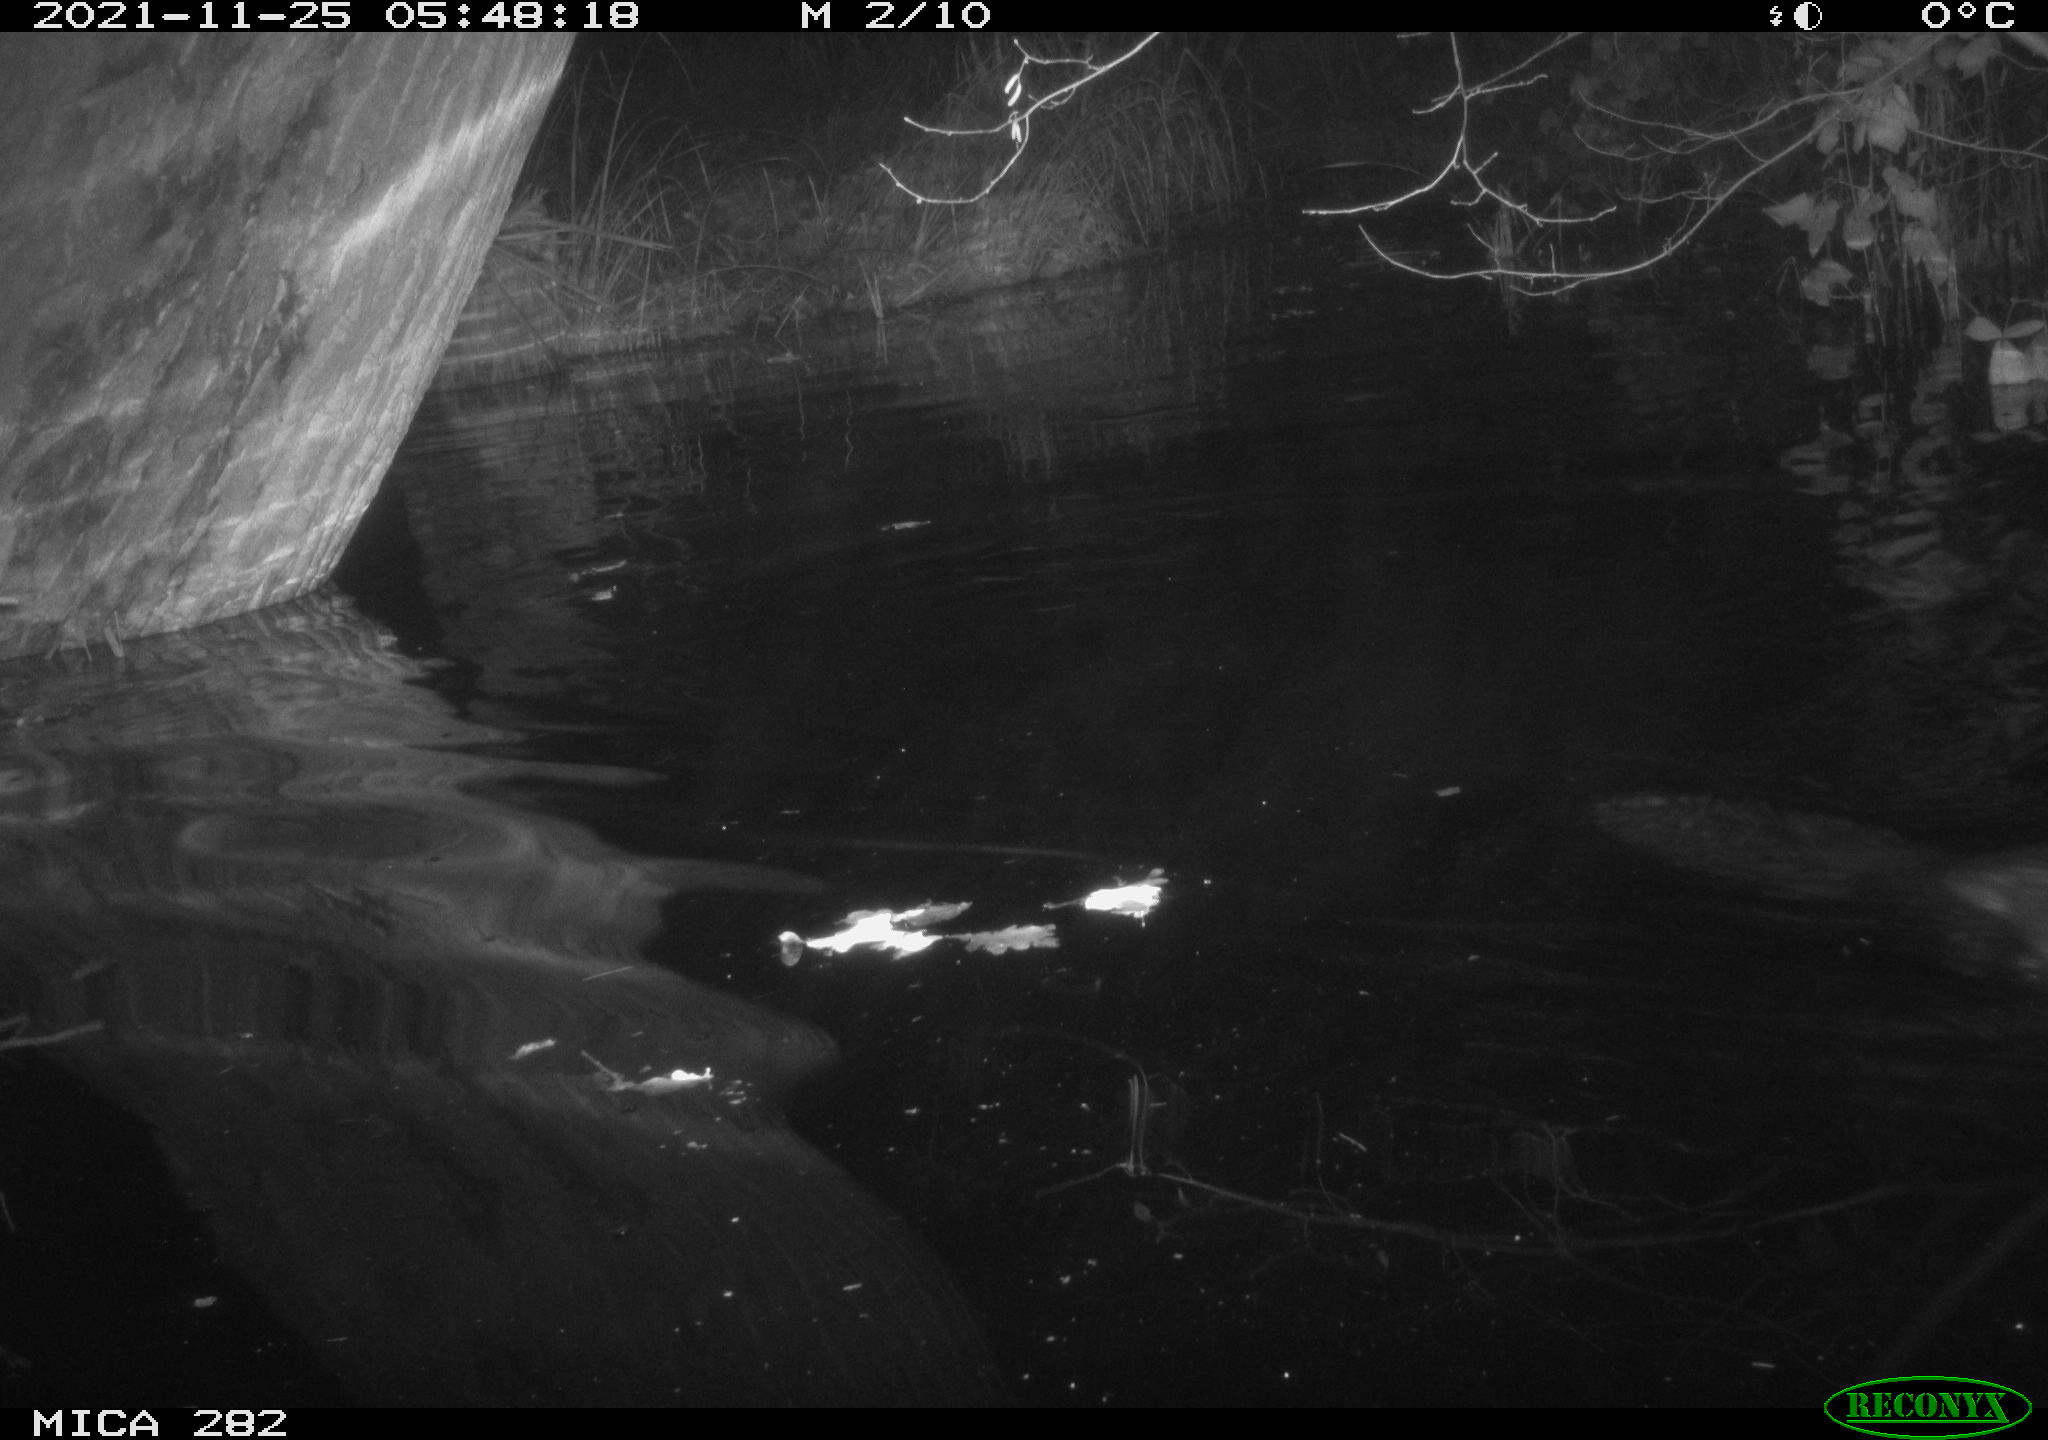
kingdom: Animalia
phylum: Chordata
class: Mammalia
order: Rodentia
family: Castoridae
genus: Castor
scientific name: Castor fiber
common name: Eurasian beaver
